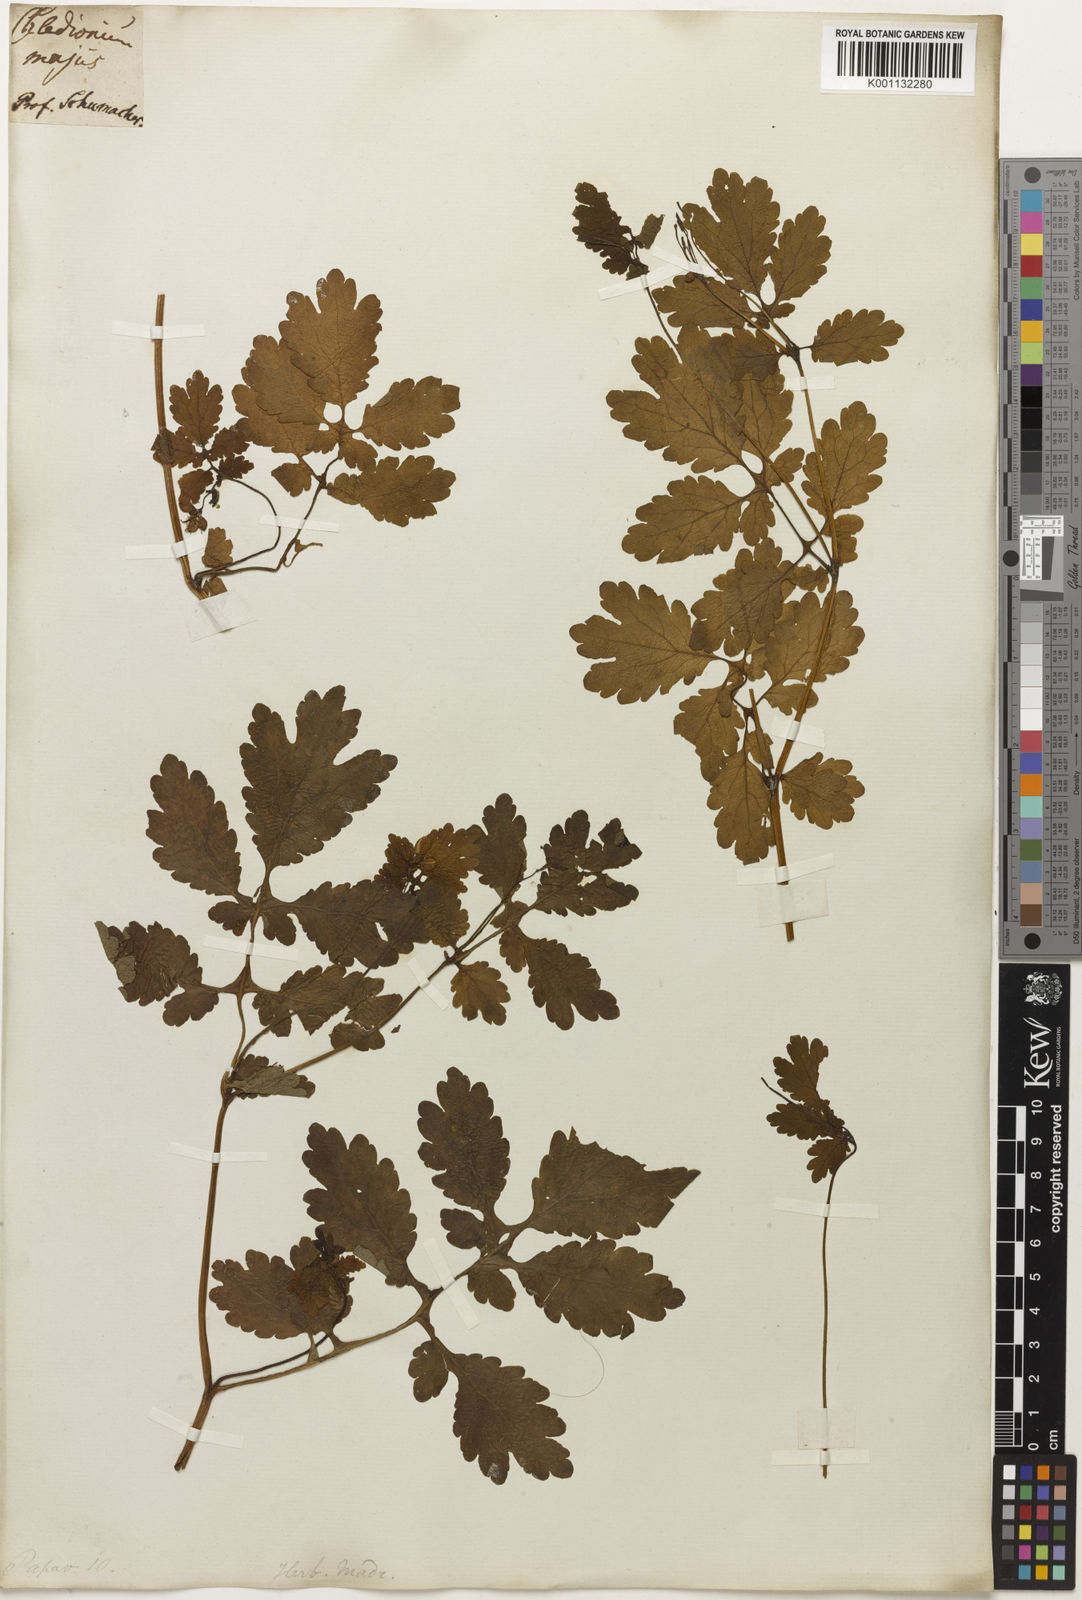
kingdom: Plantae
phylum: Tracheophyta
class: Magnoliopsida
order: Ranunculales
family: Papaveraceae
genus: Chelidonium
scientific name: Chelidonium
